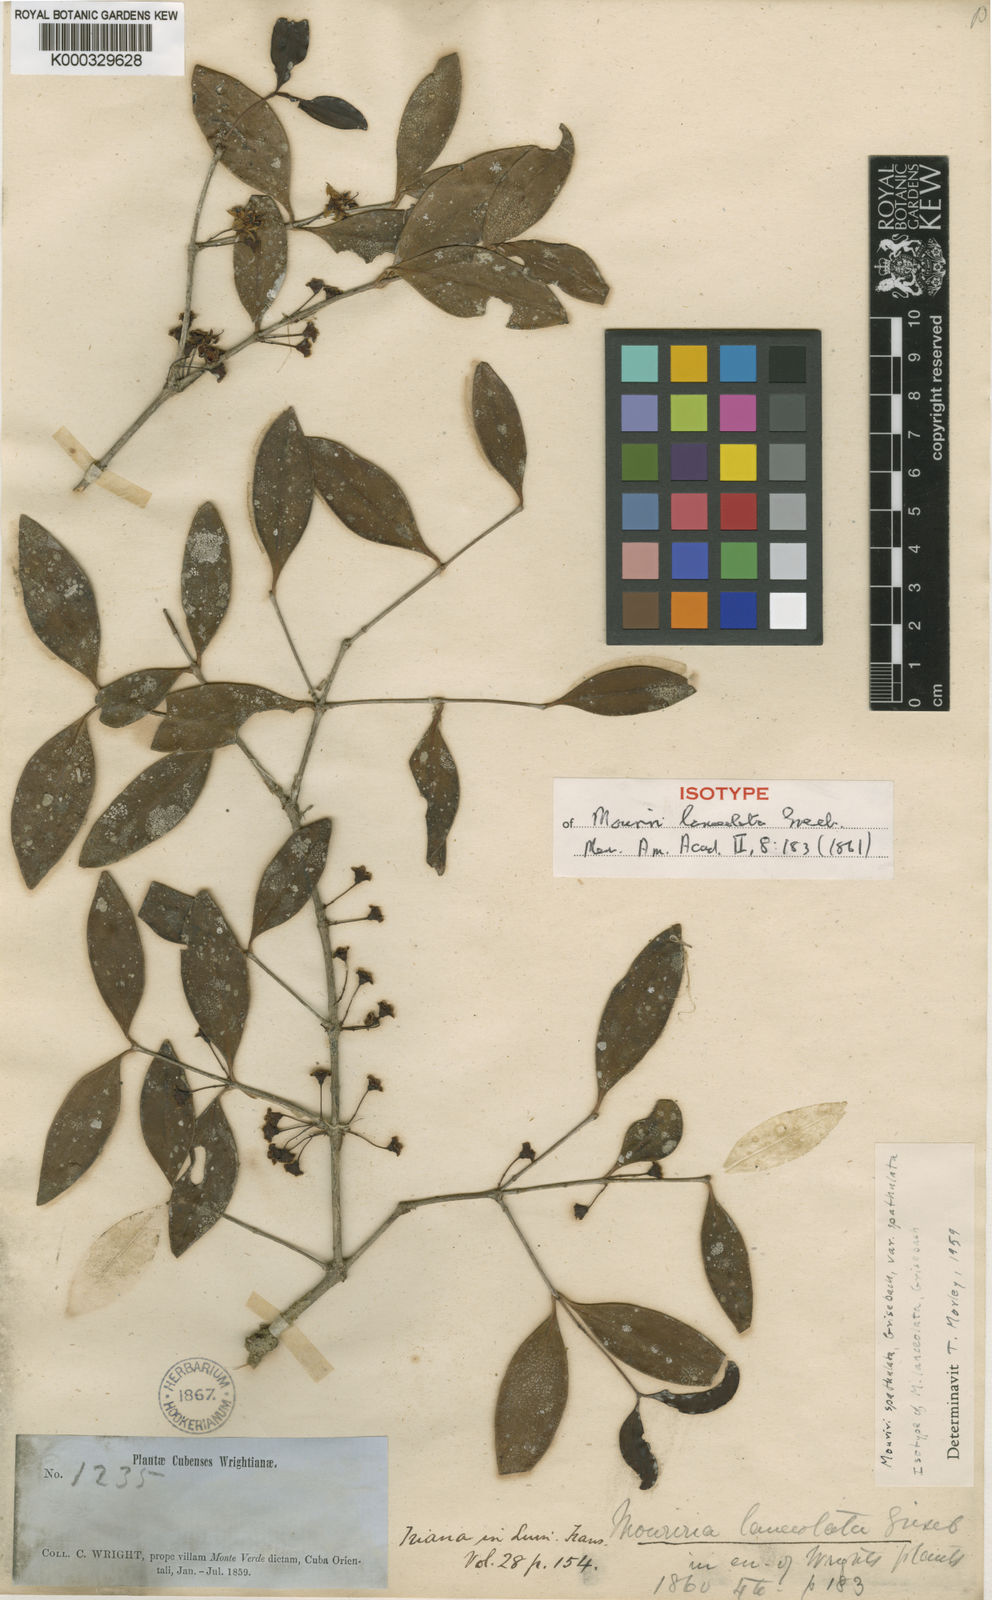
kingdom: Plantae
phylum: Tracheophyta
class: Magnoliopsida
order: Myrtales
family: Melastomataceae
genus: Mouriri
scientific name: Mouriri spathulata
